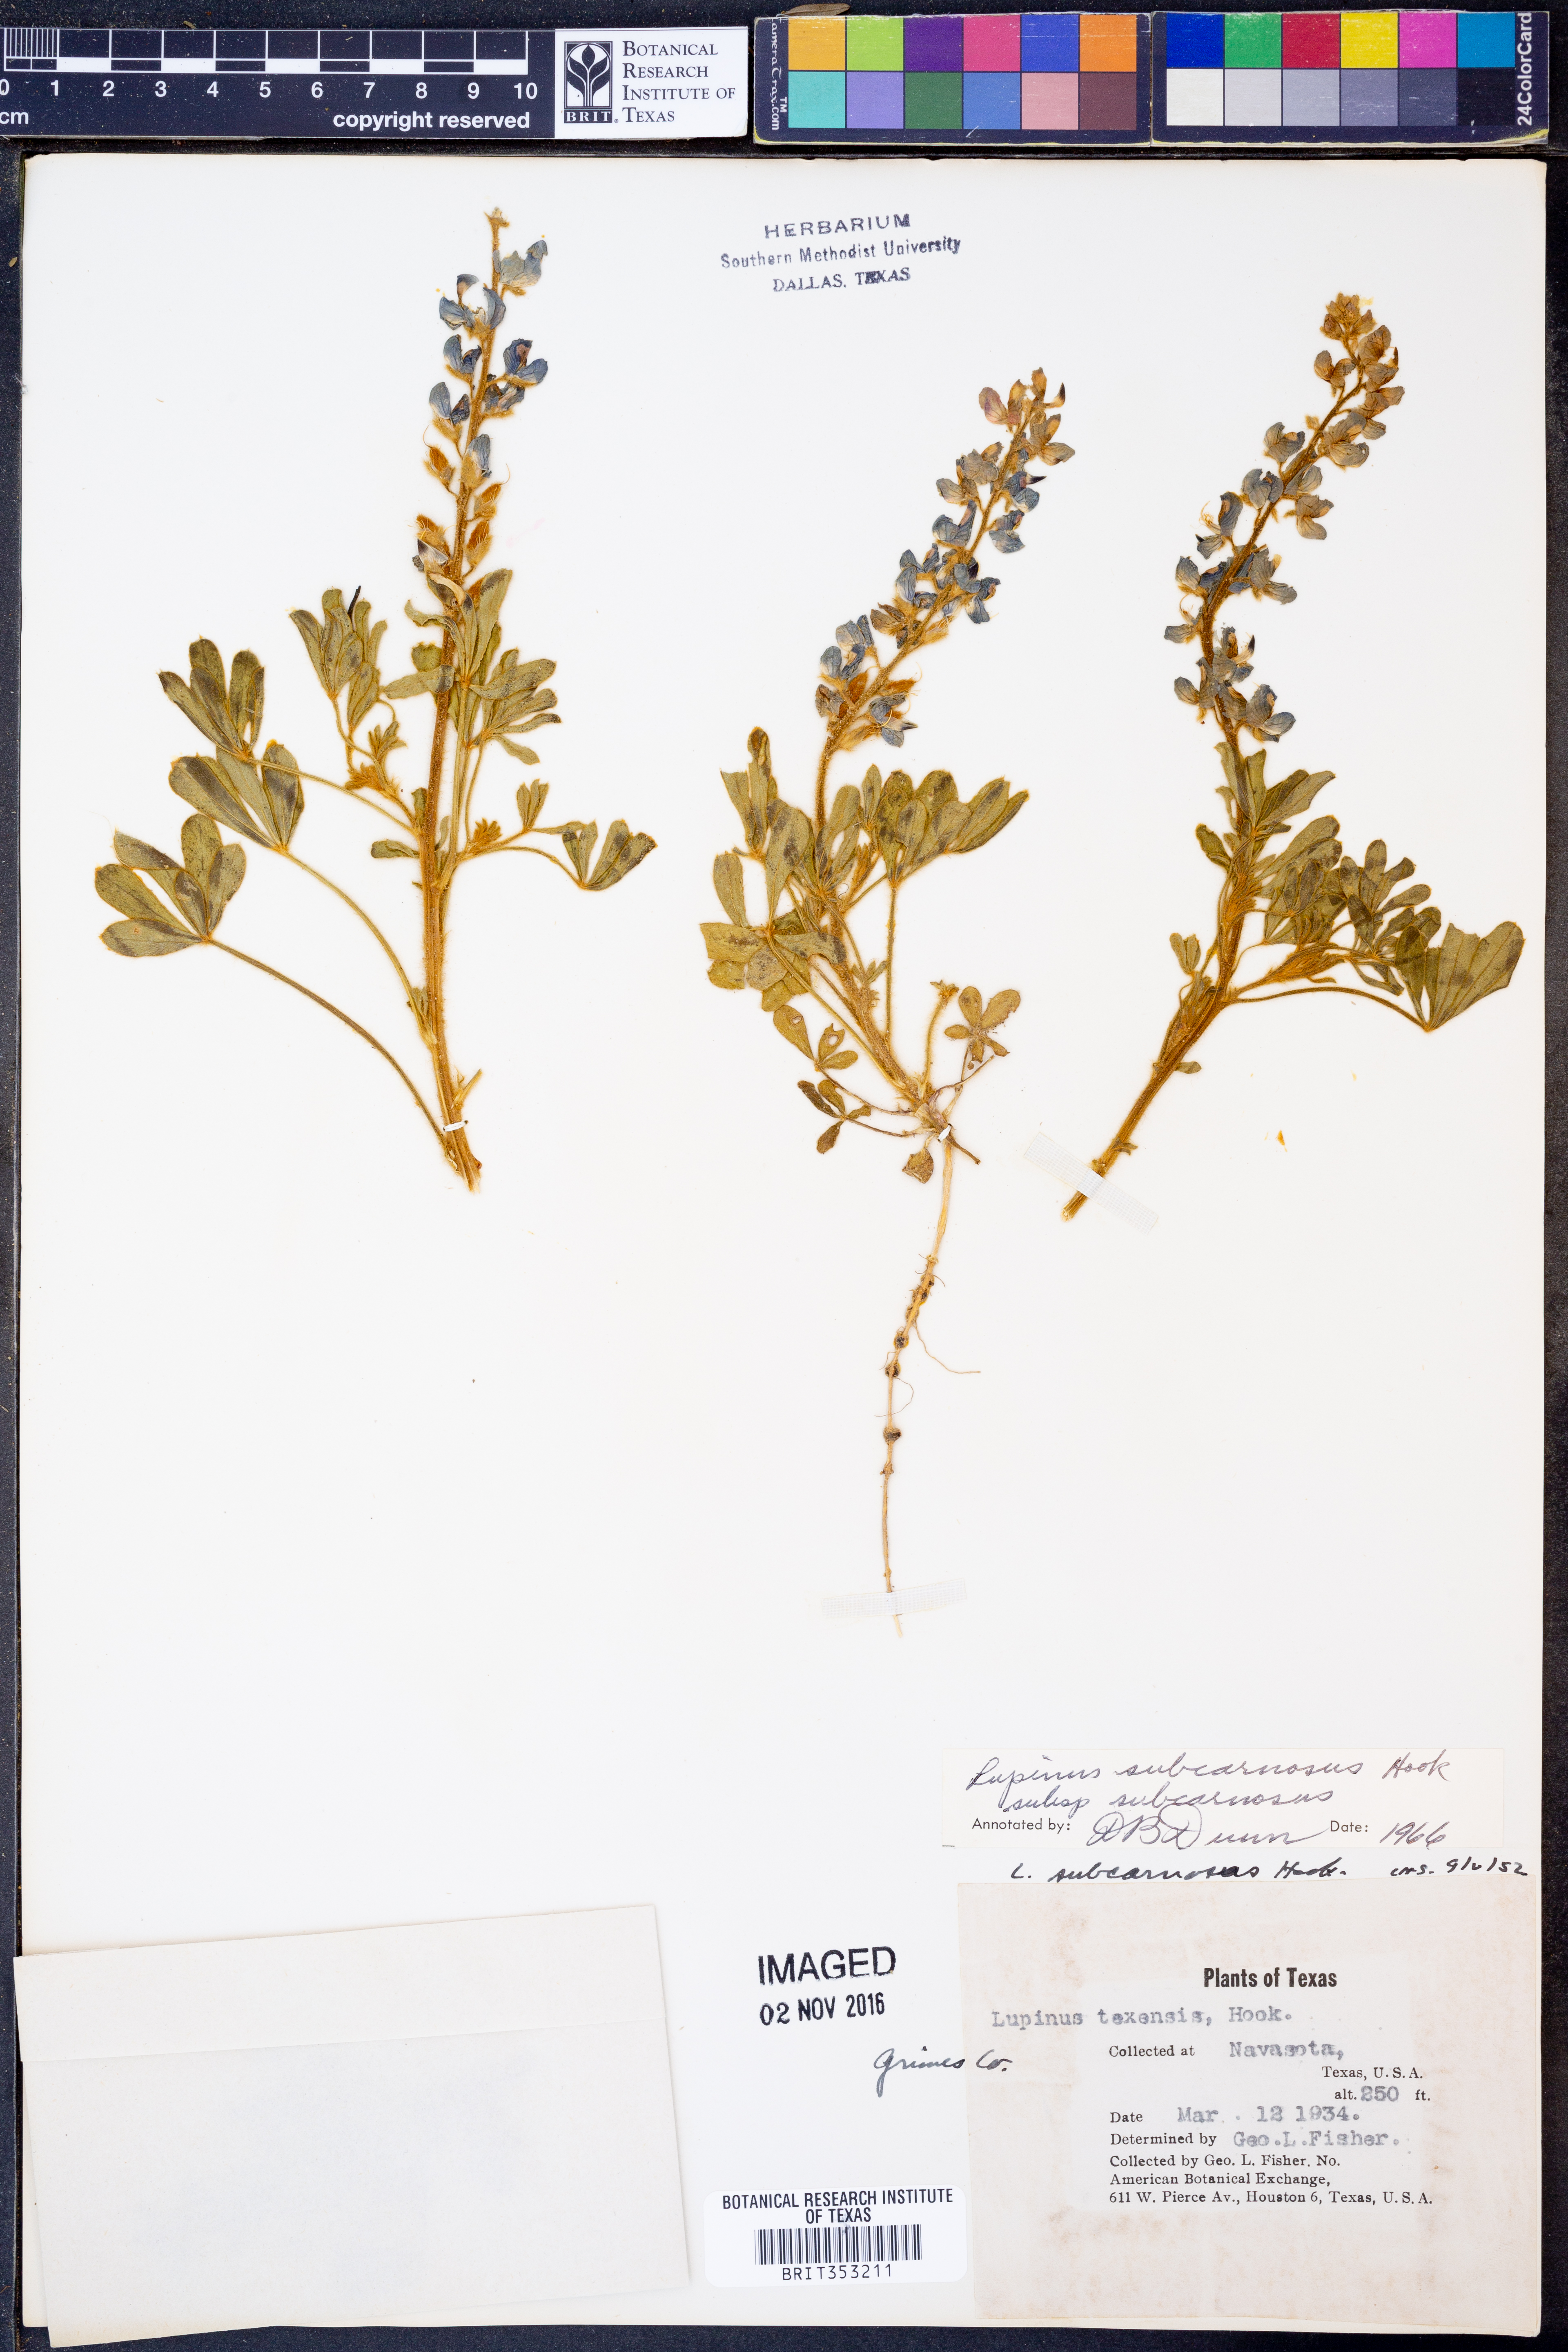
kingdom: Plantae
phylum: Tracheophyta
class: Magnoliopsida
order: Fabales
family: Fabaceae
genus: Lupinus
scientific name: Lupinus subcarnosus
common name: Texas bluebonnet
